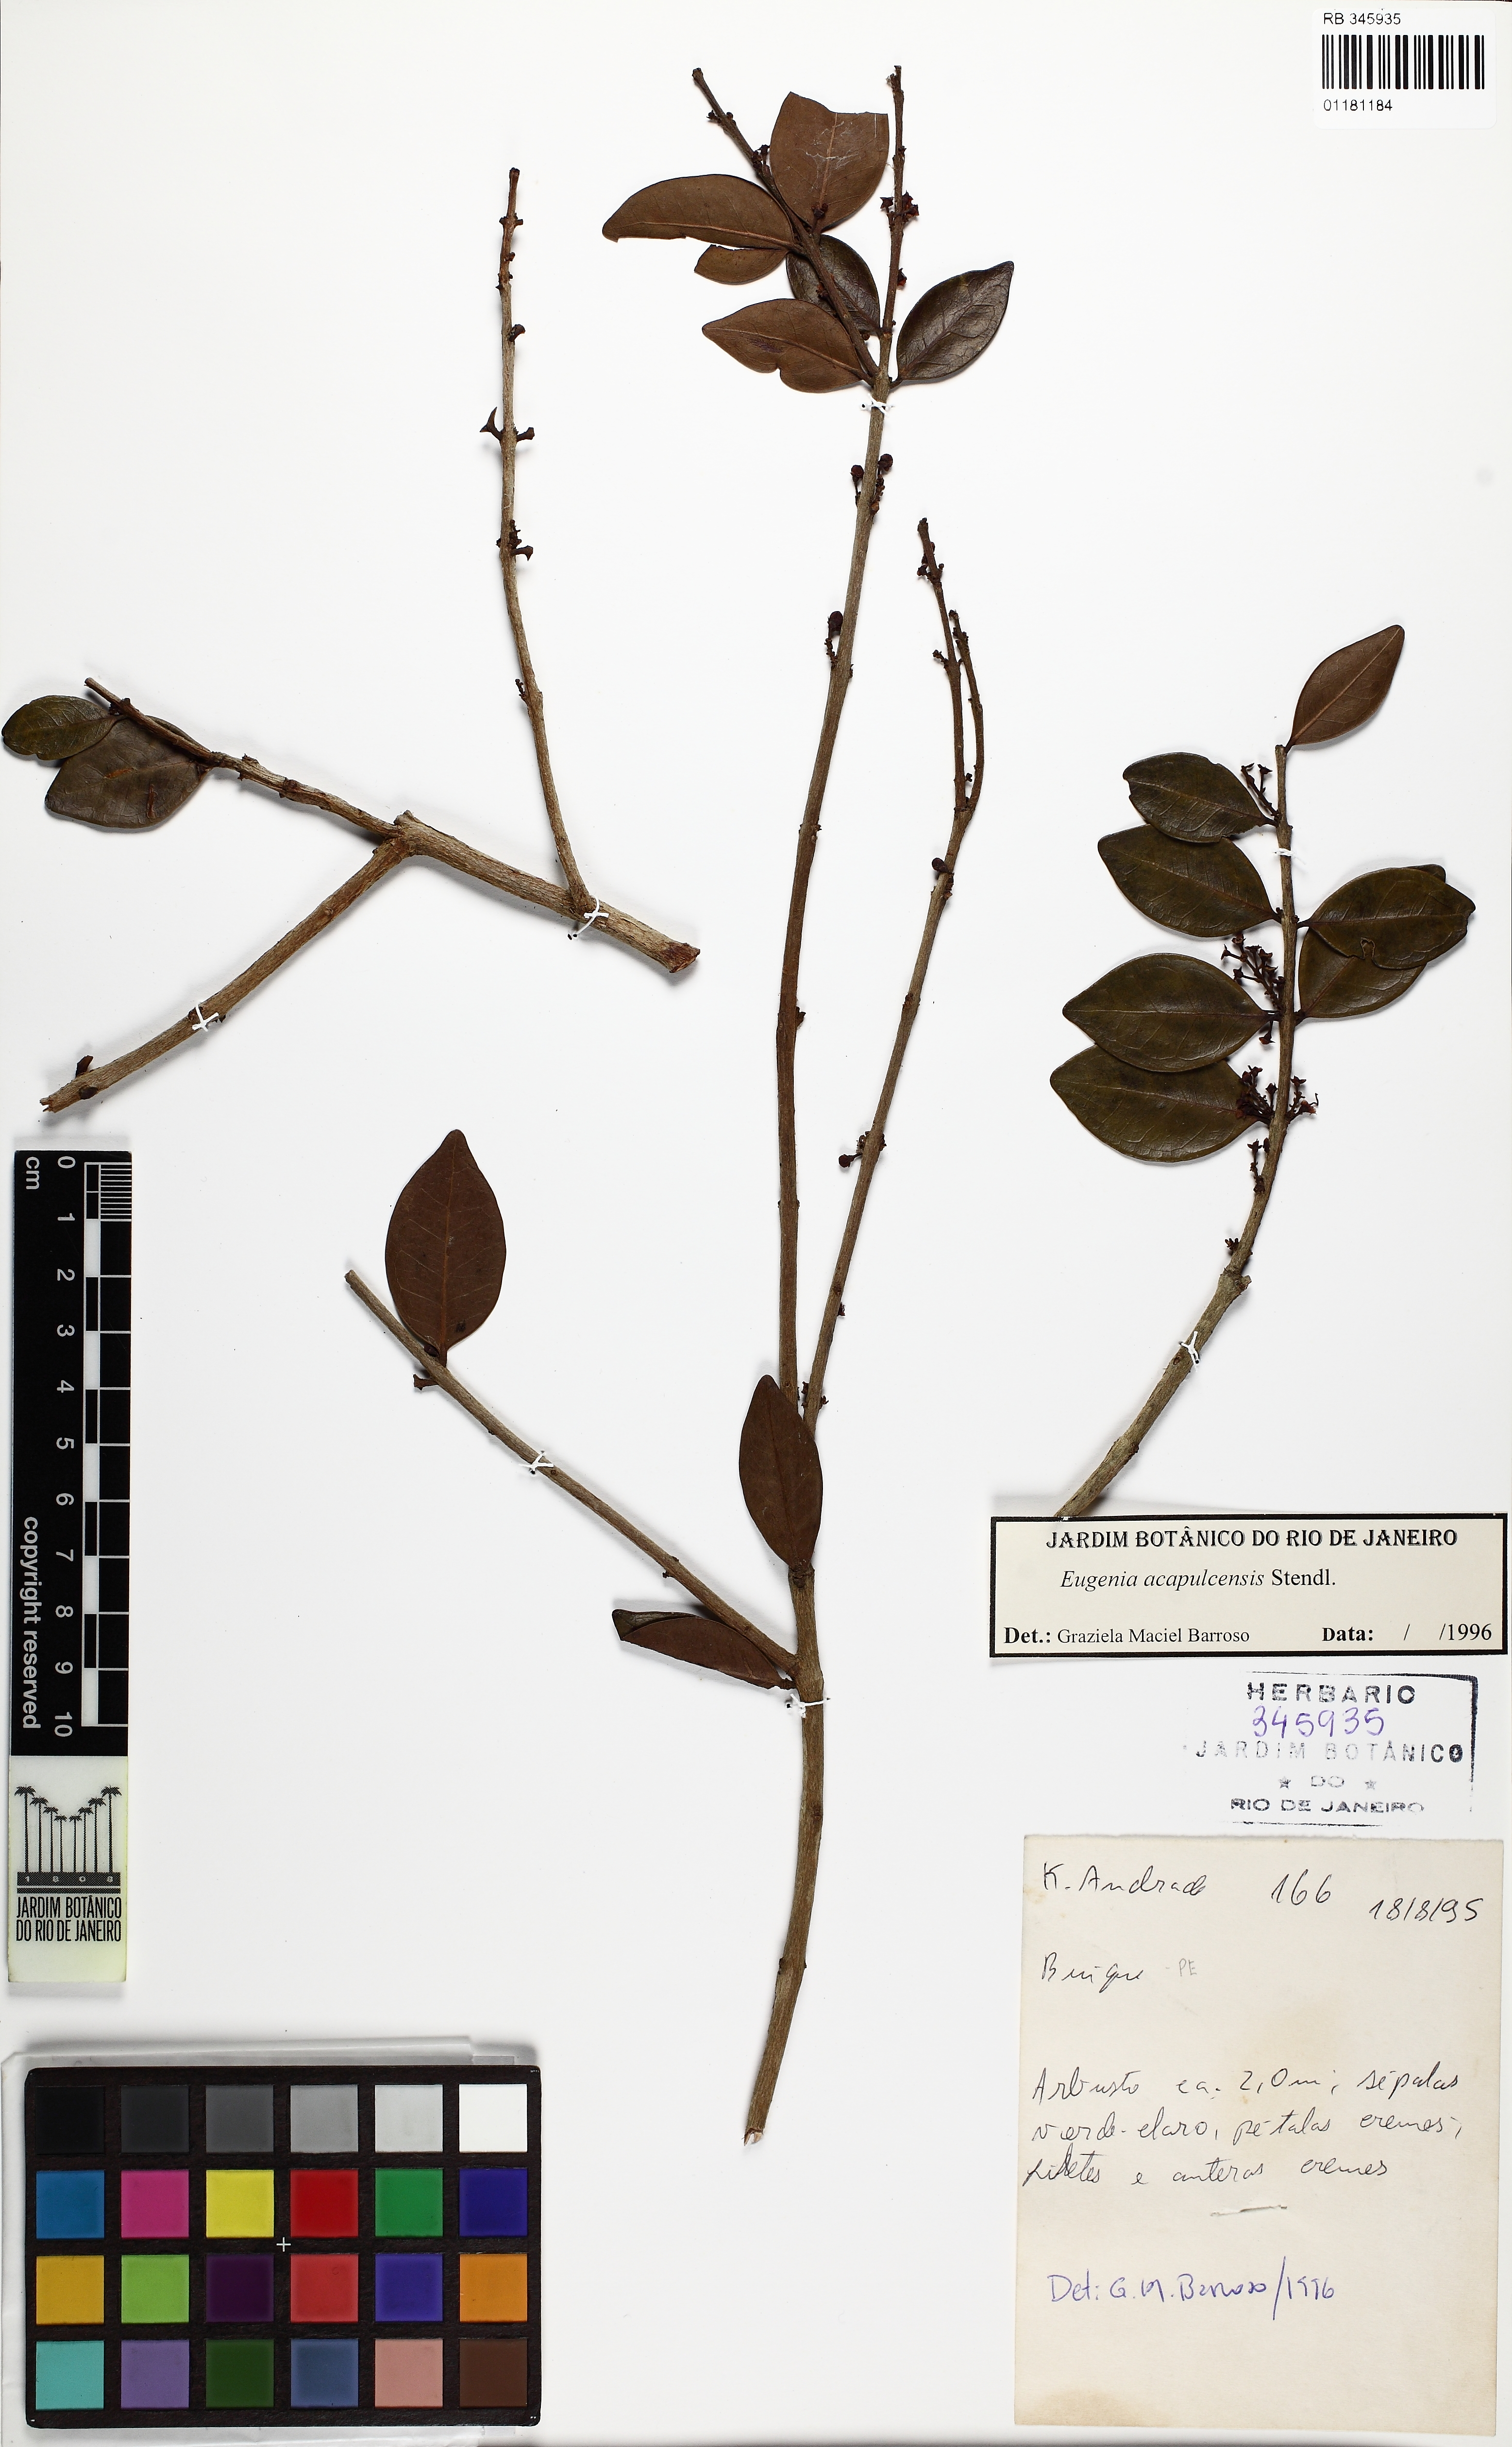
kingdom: Plantae
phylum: Tracheophyta
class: Magnoliopsida
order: Myrtales
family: Myrtaceae
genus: Eugenia
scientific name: Eugenia acapulcensis
